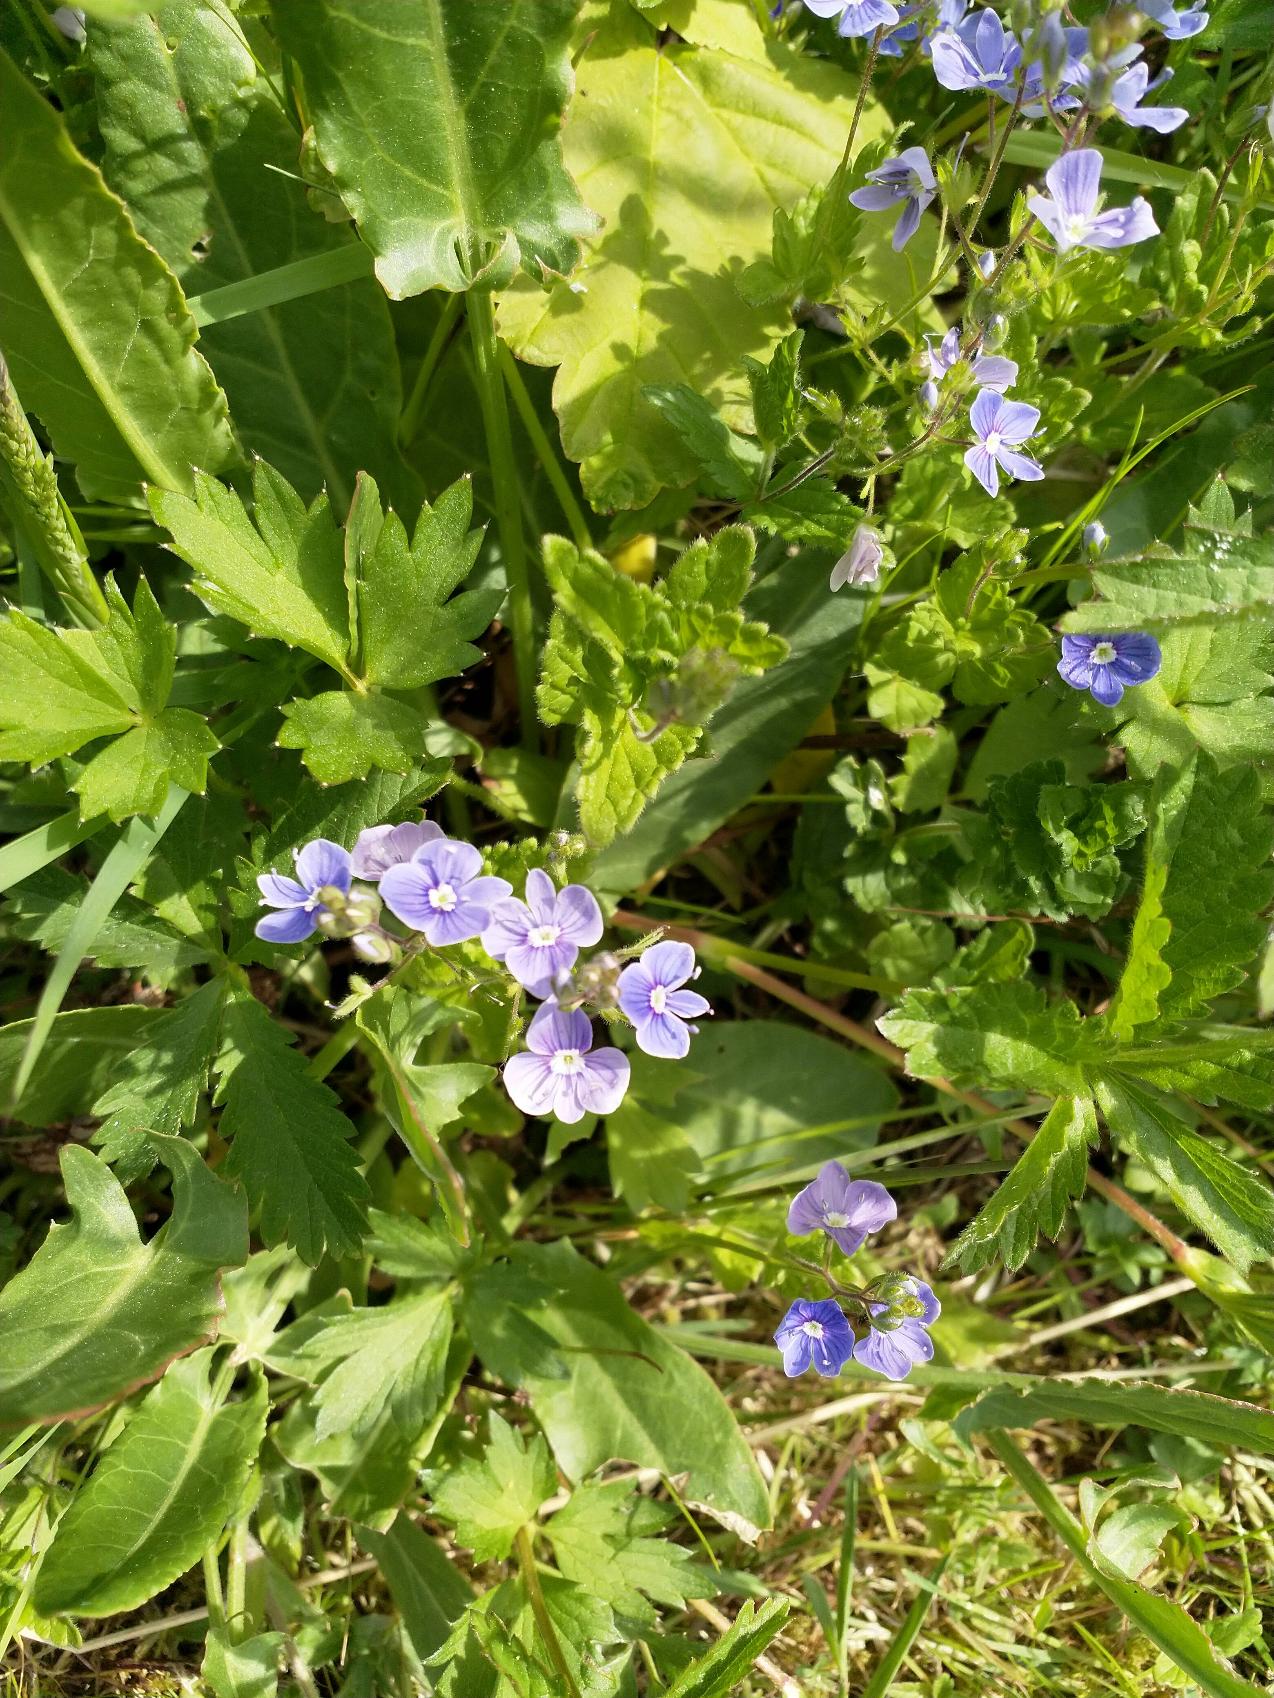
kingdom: Plantae
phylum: Tracheophyta
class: Magnoliopsida
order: Lamiales
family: Plantaginaceae
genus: Veronica
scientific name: Veronica chamaedrys
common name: Tveskægget ærenpris
